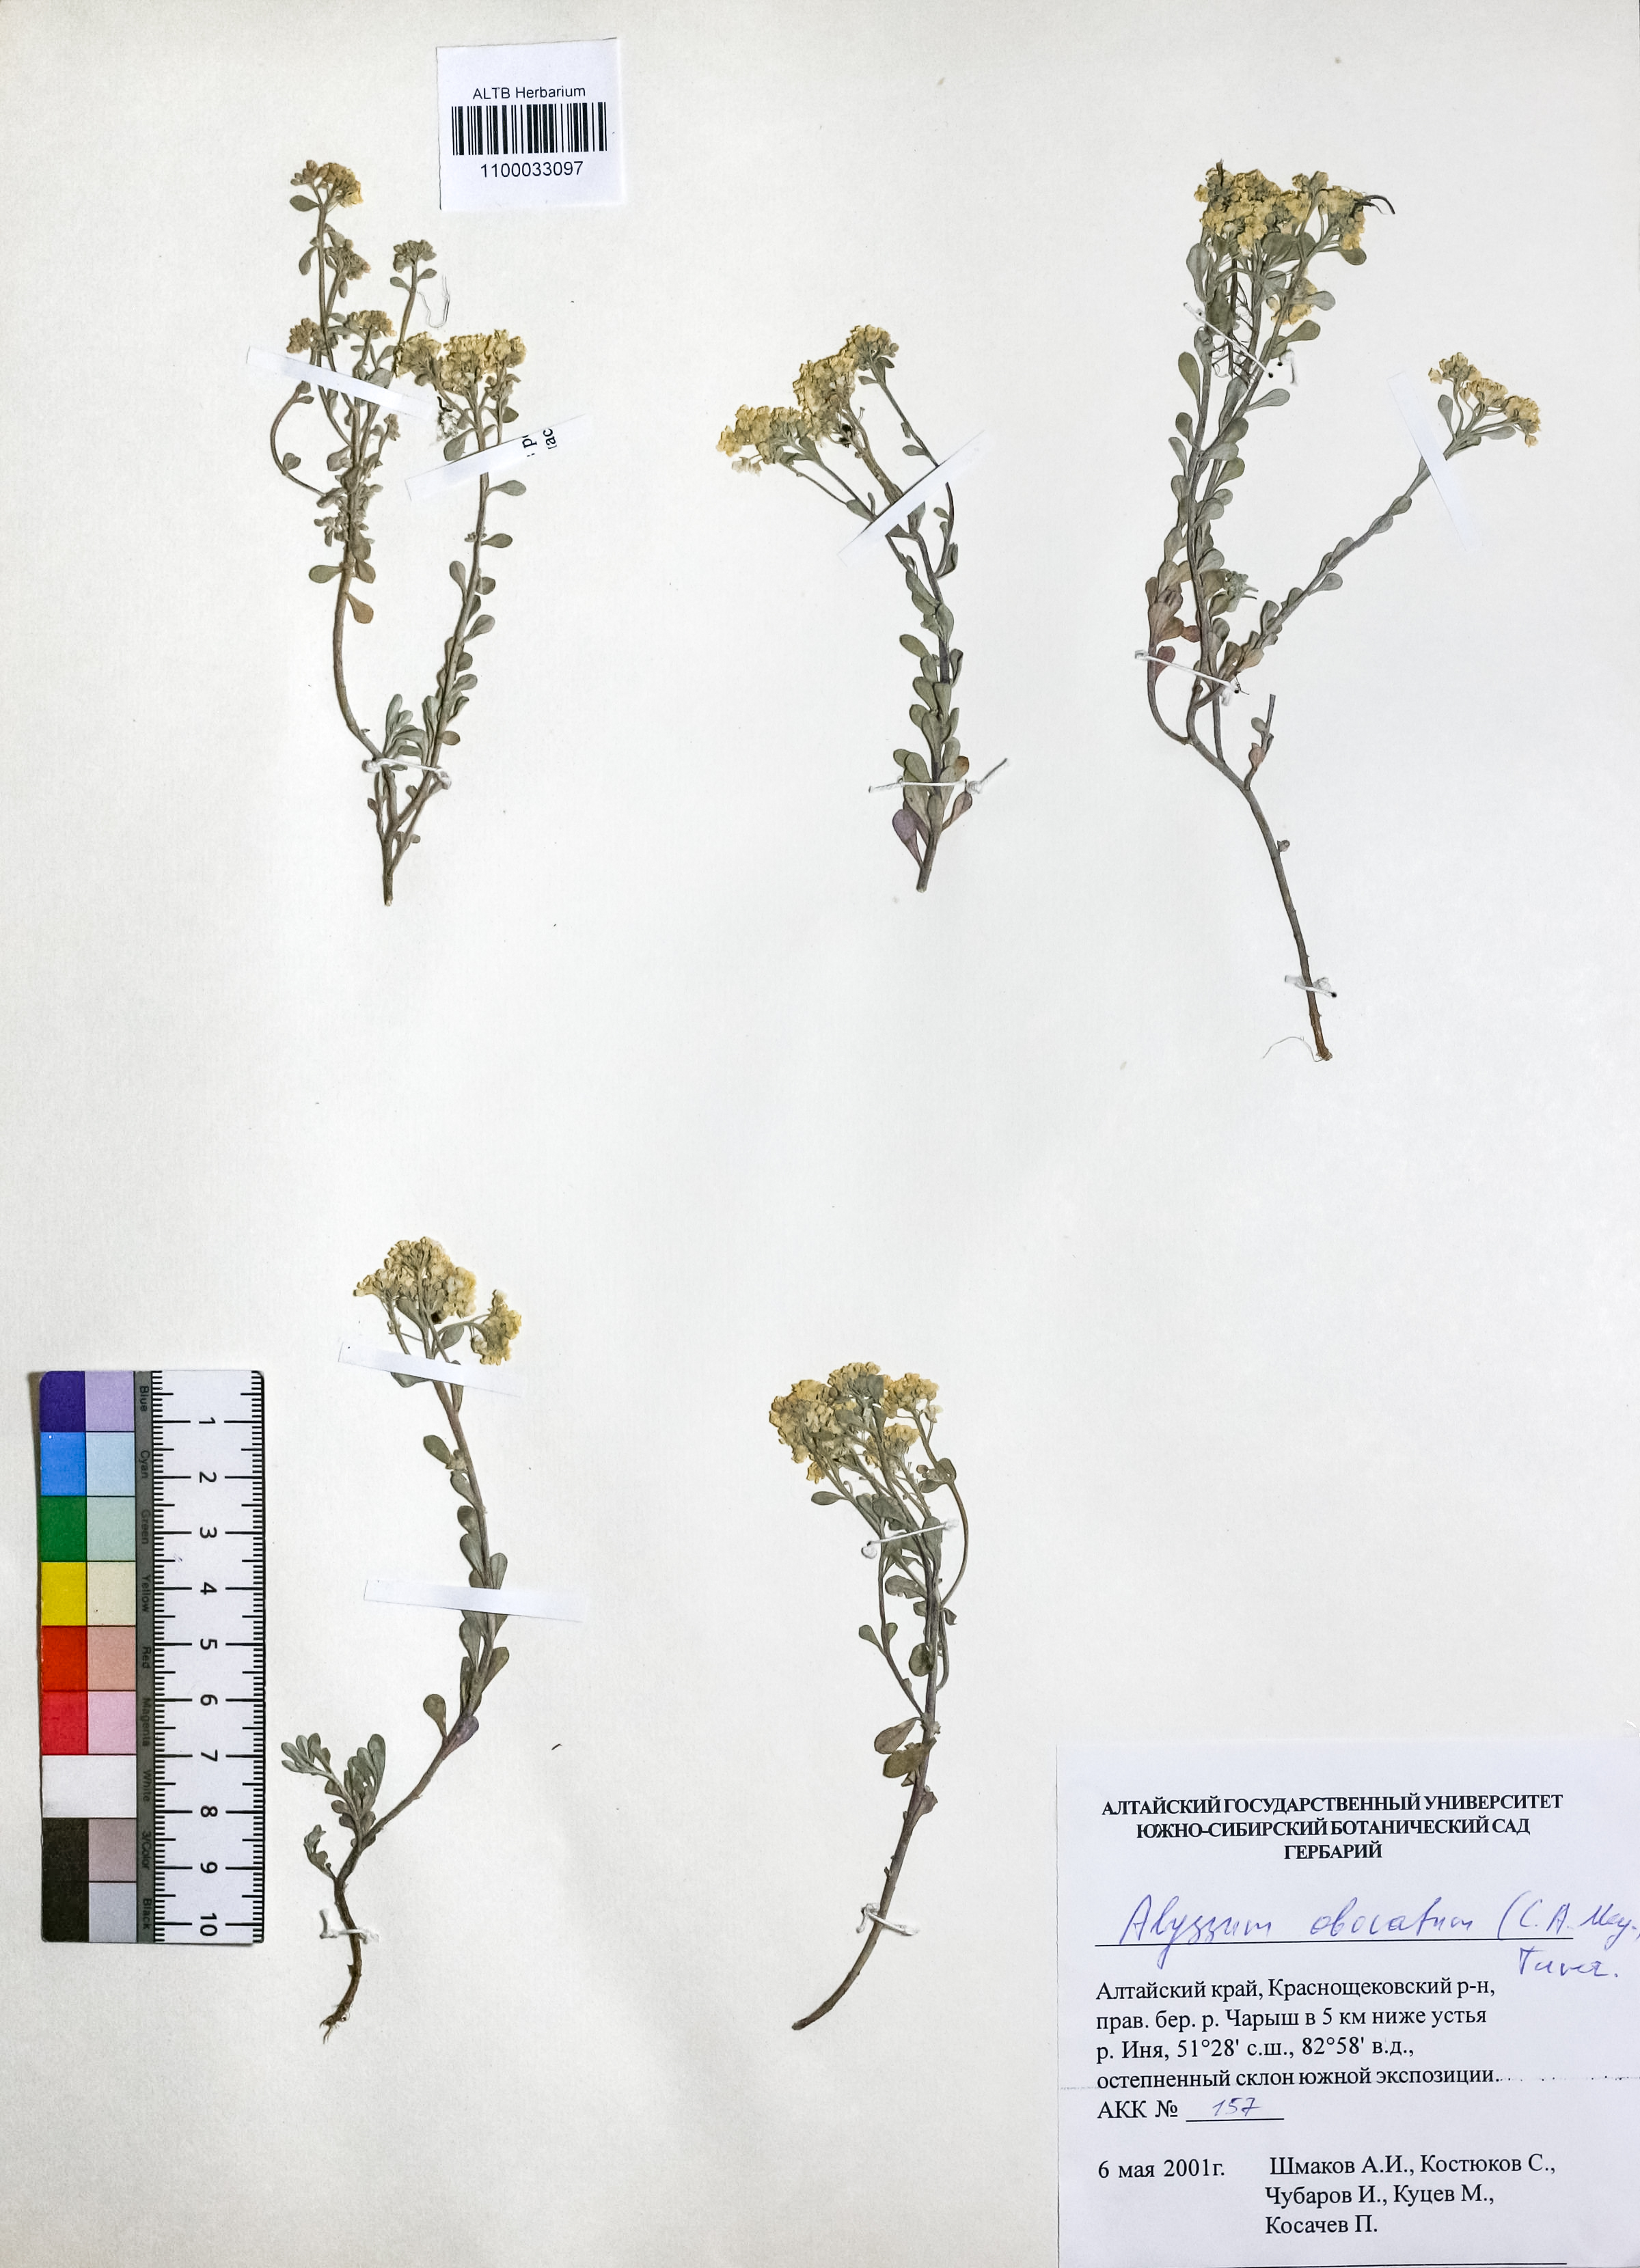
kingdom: Plantae
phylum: Tracheophyta
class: Magnoliopsida
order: Brassicales
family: Brassicaceae
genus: Odontarrhena
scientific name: Odontarrhena obovata
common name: American alyssum
